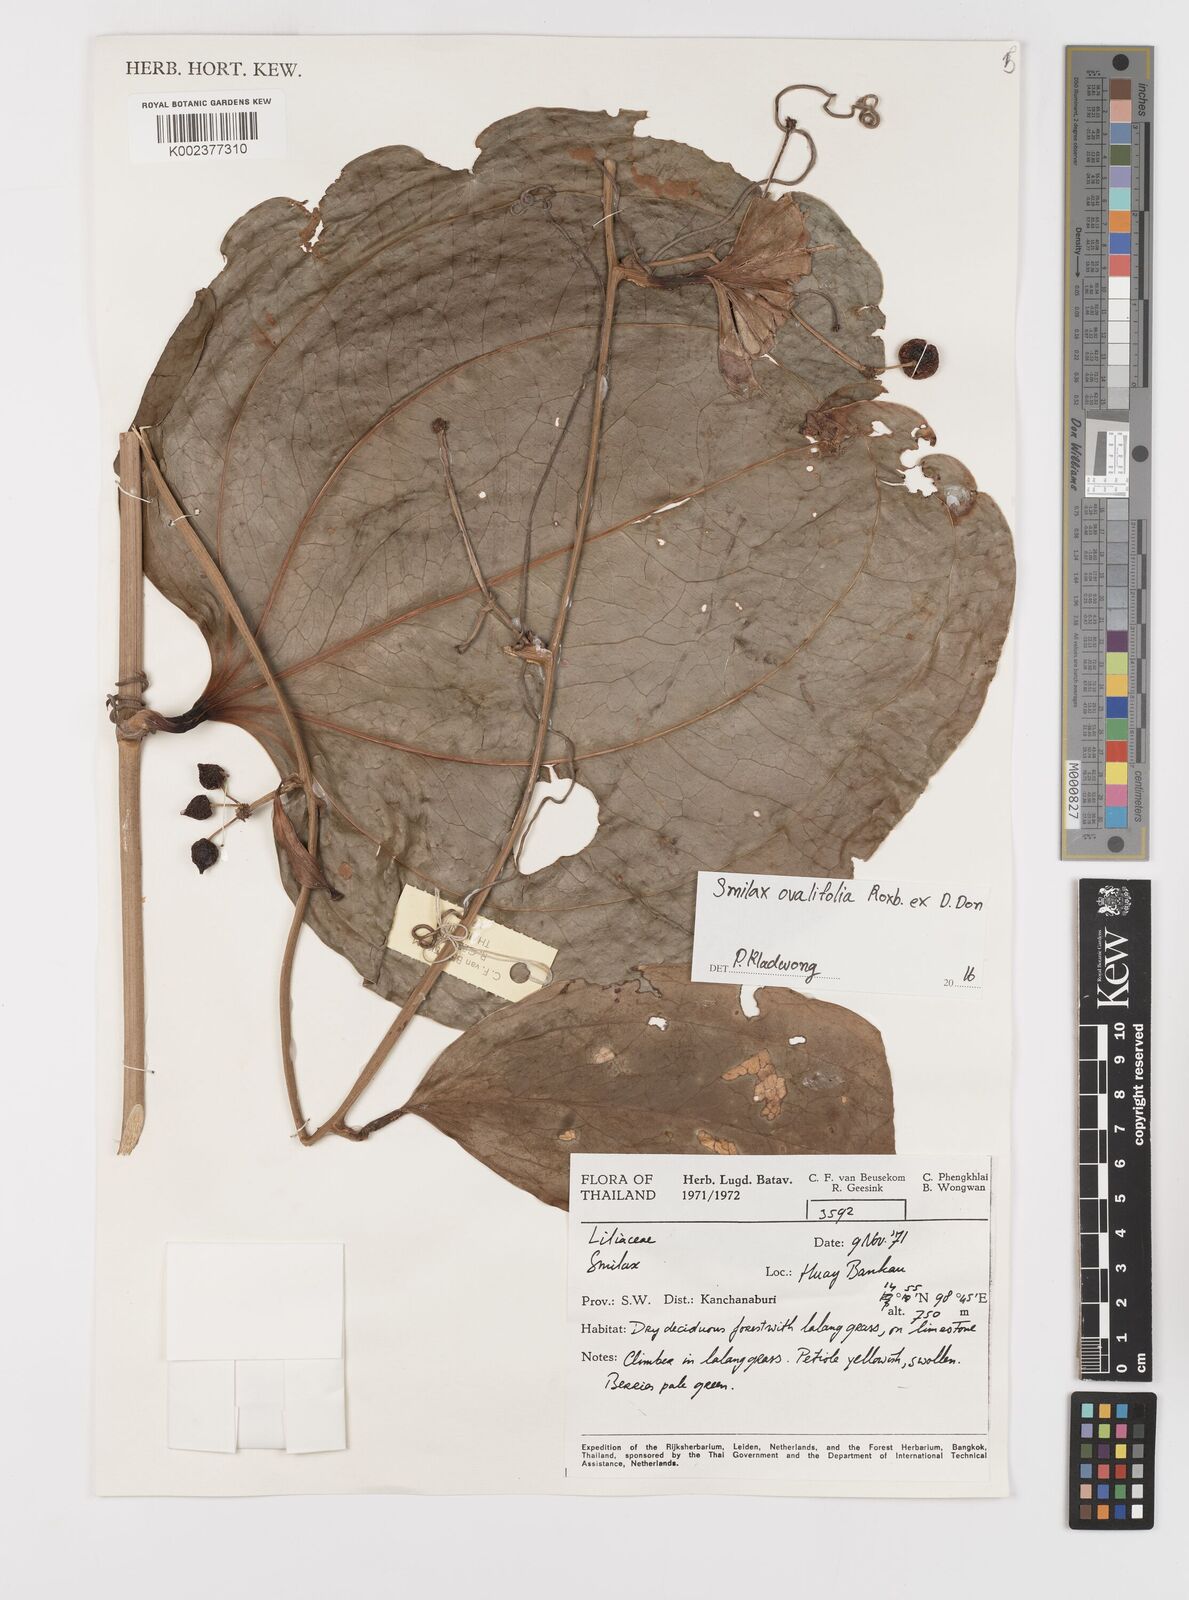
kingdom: Plantae
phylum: Tracheophyta
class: Liliopsida
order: Liliales
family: Smilacaceae
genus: Smilax
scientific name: Smilax ovalifolia
